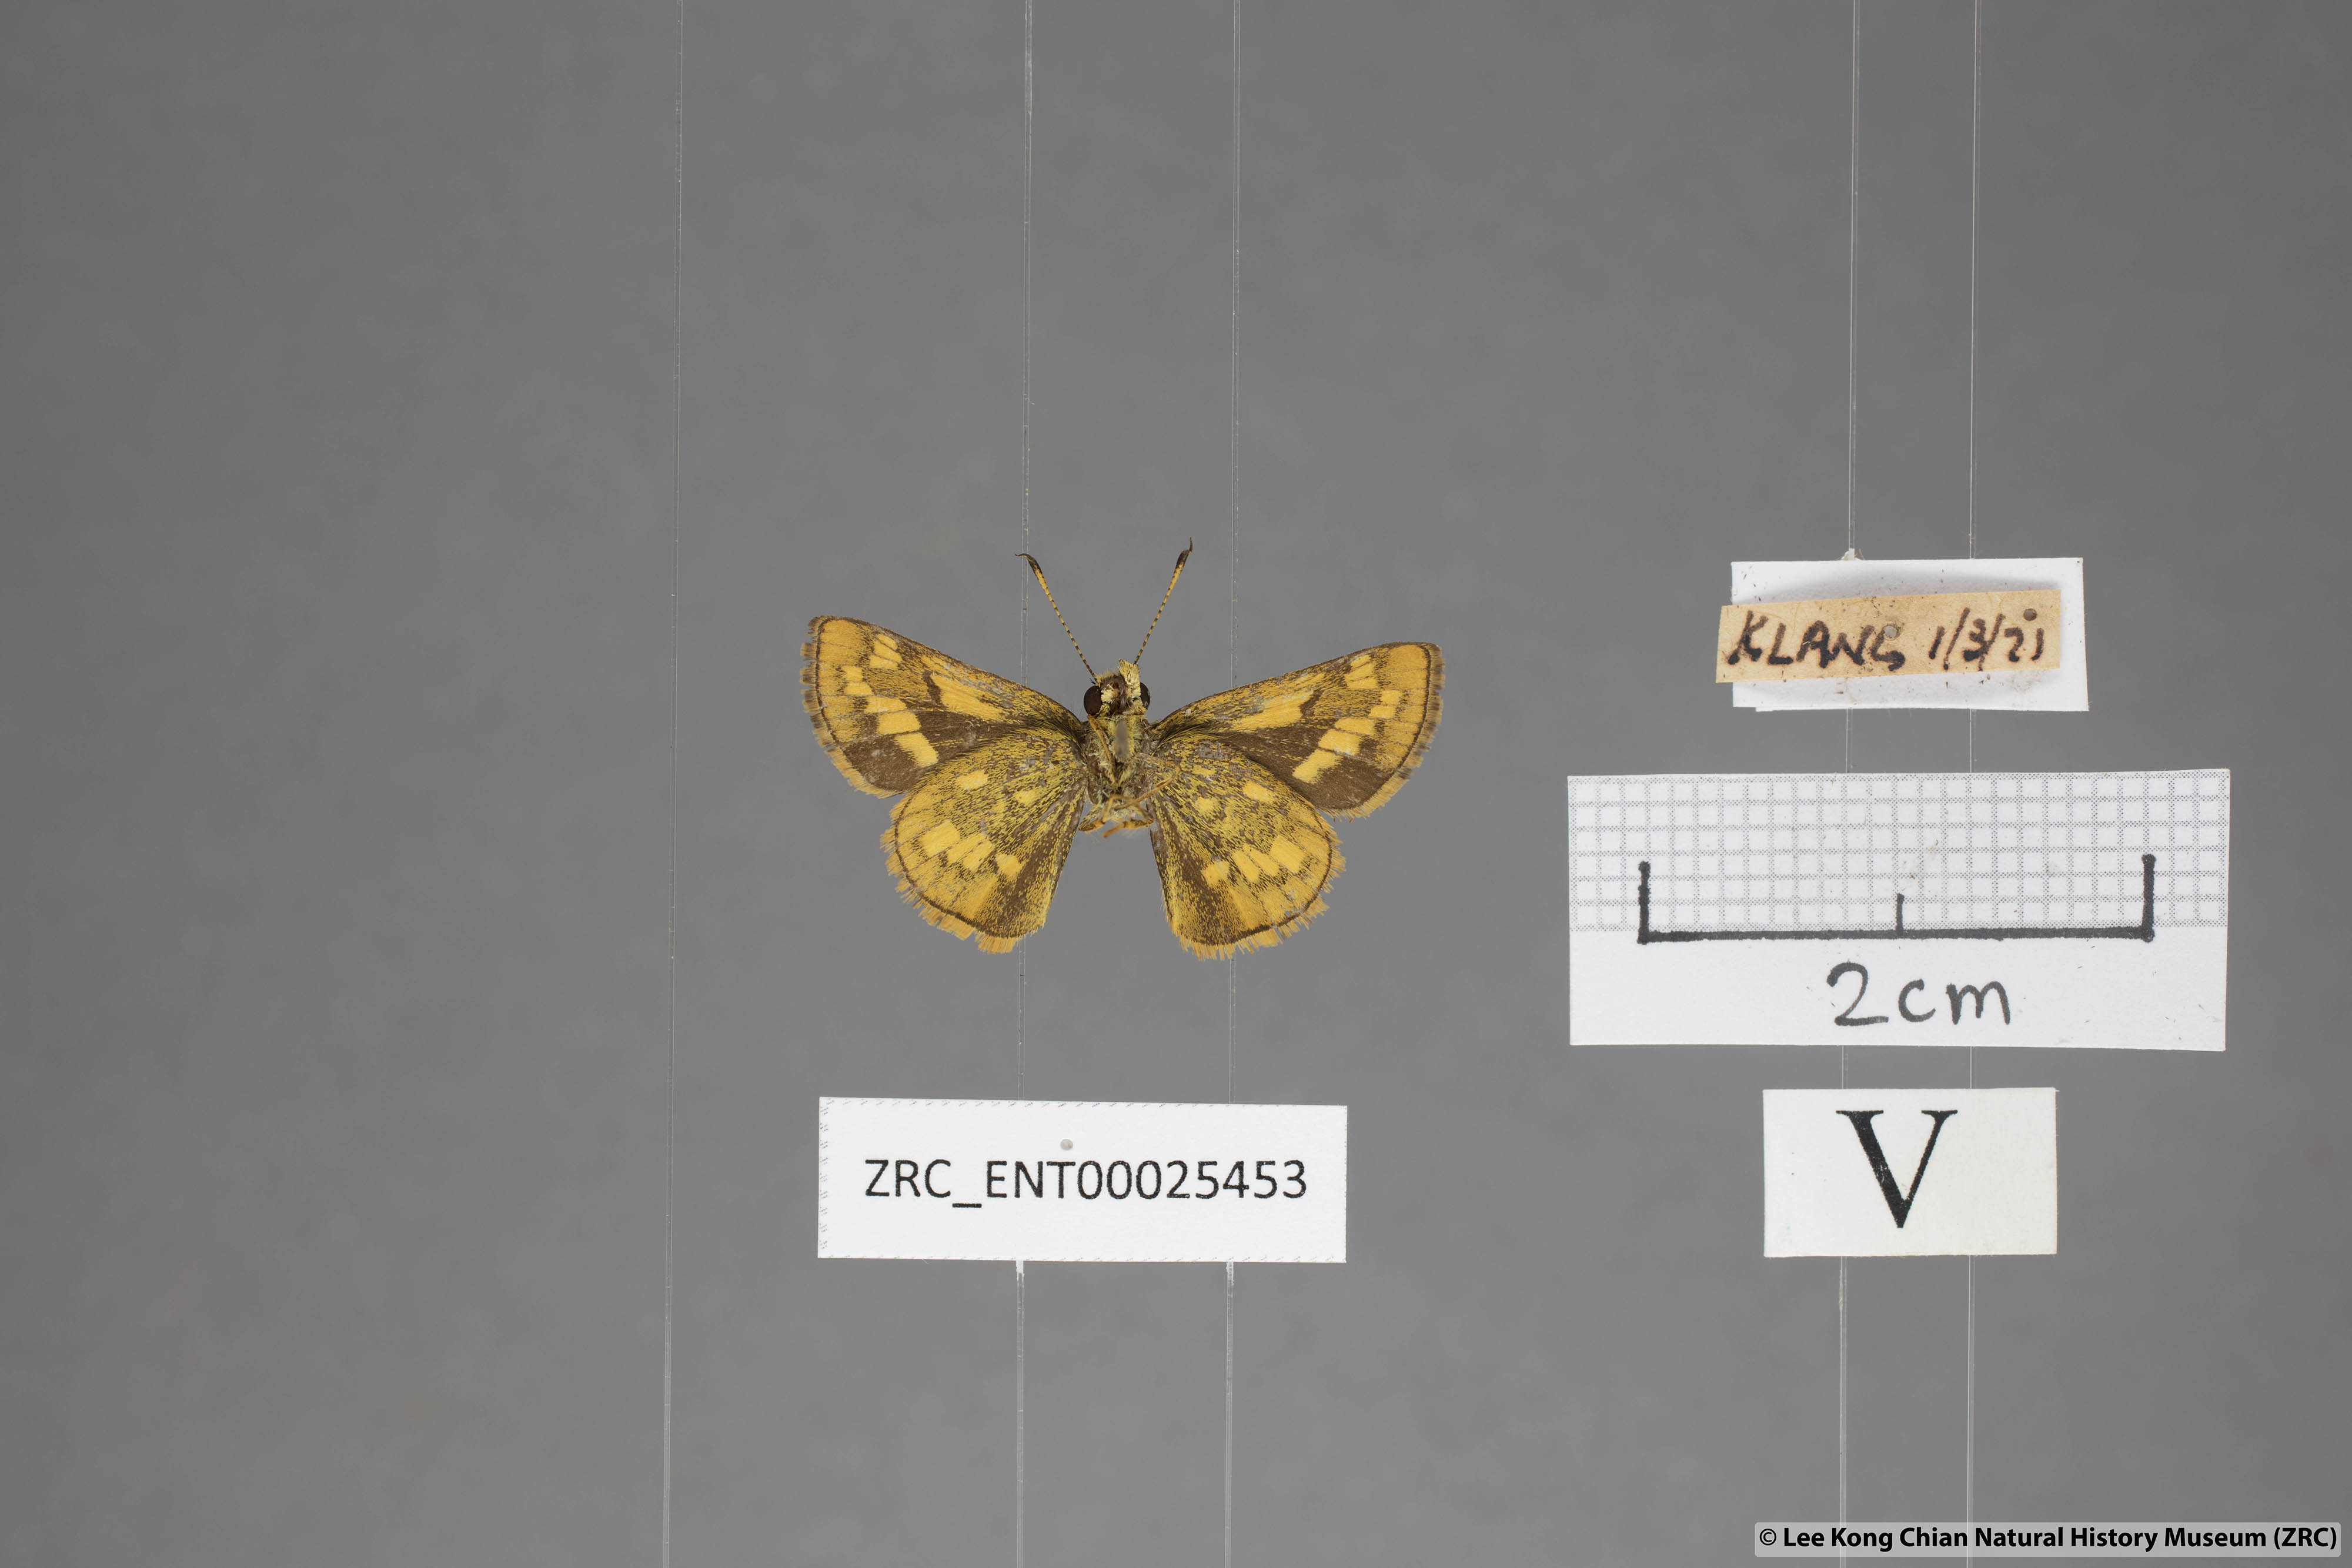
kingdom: Animalia
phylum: Arthropoda
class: Insecta
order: Lepidoptera
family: Hesperiidae
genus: Potanthus
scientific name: Potanthus omaha
